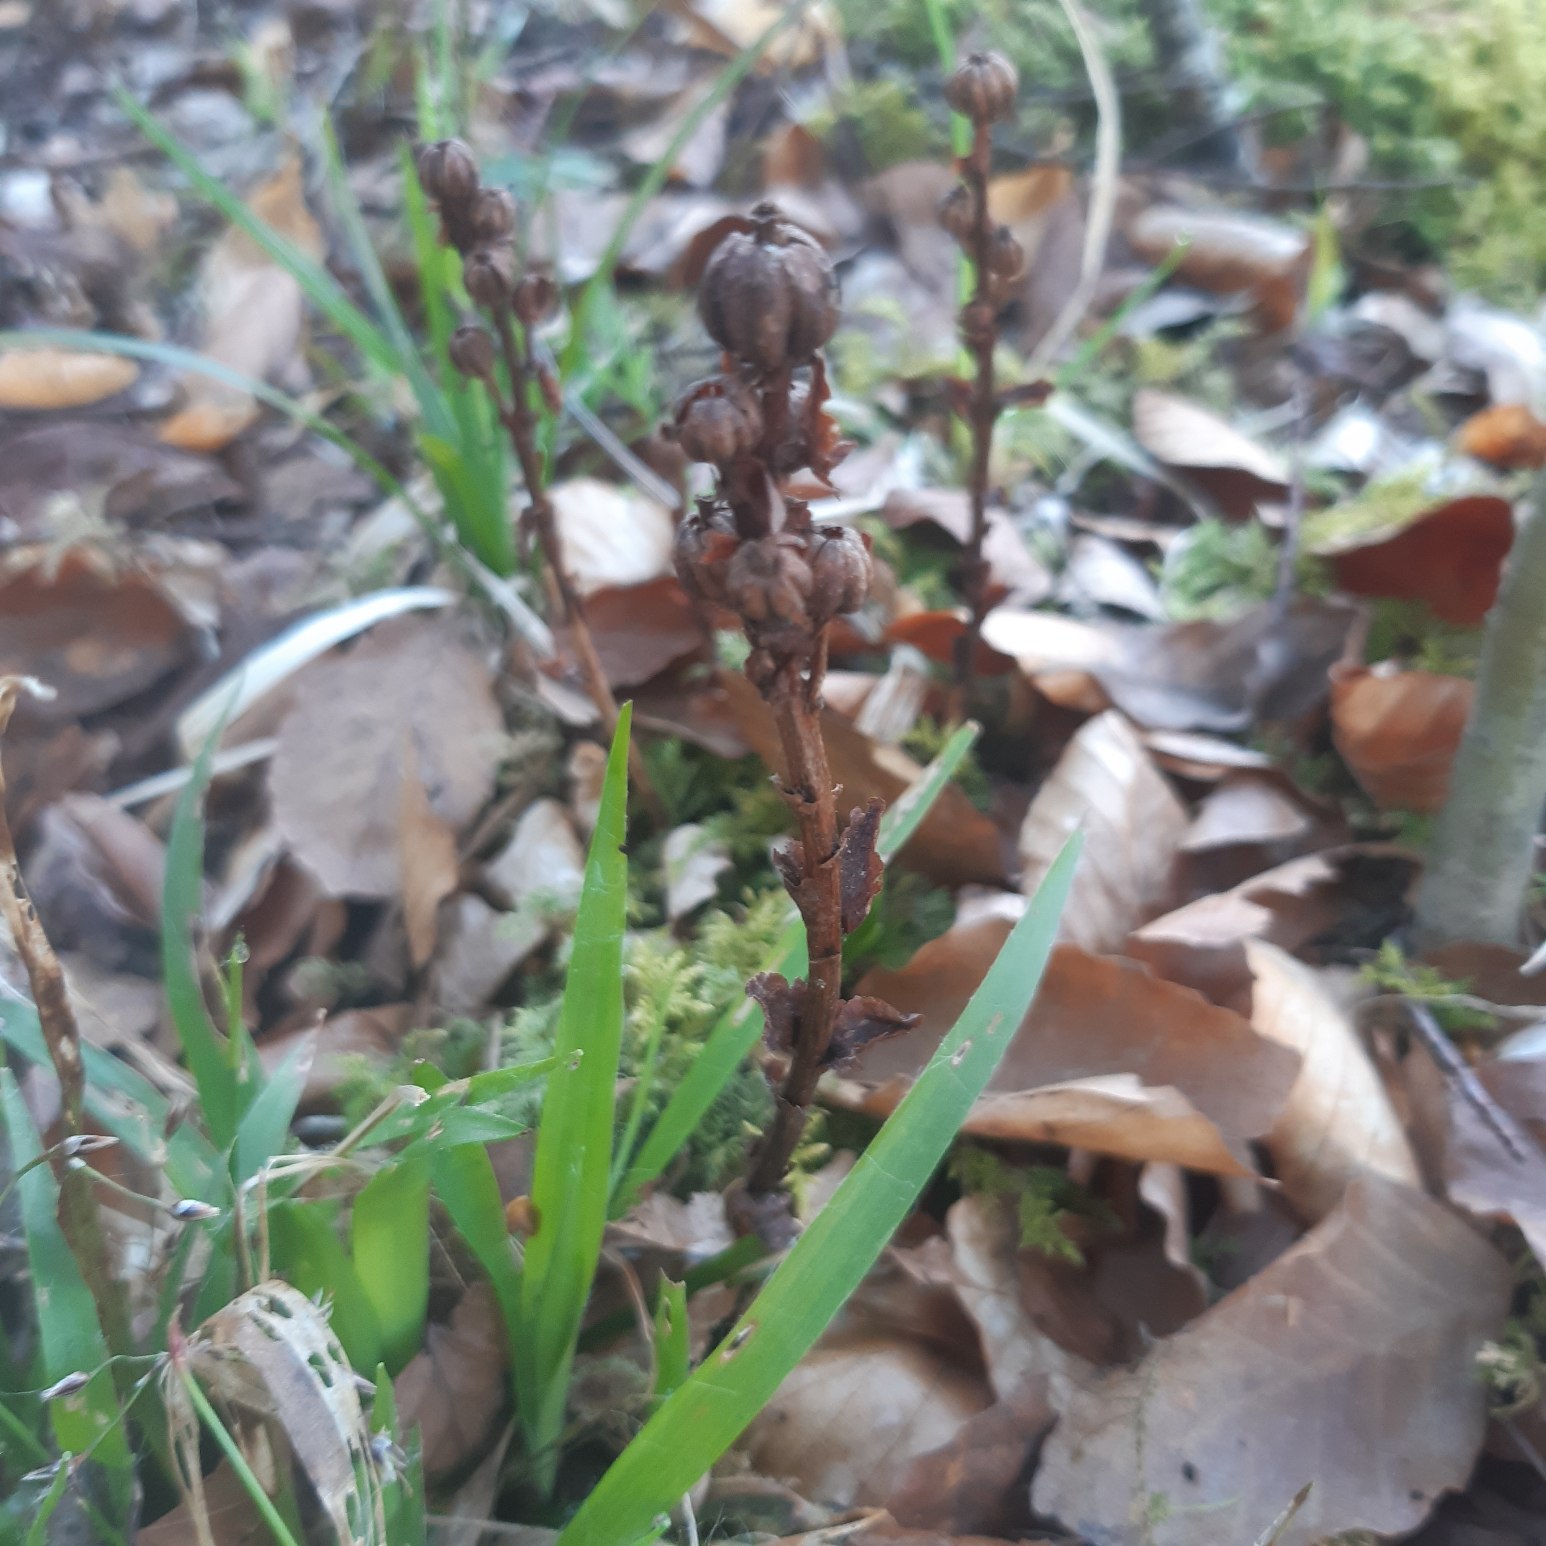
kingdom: Plantae
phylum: Tracheophyta
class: Magnoliopsida
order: Ericales
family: Ericaceae
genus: Hypopitys
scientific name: Hypopitys monotropa
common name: Snylterod
